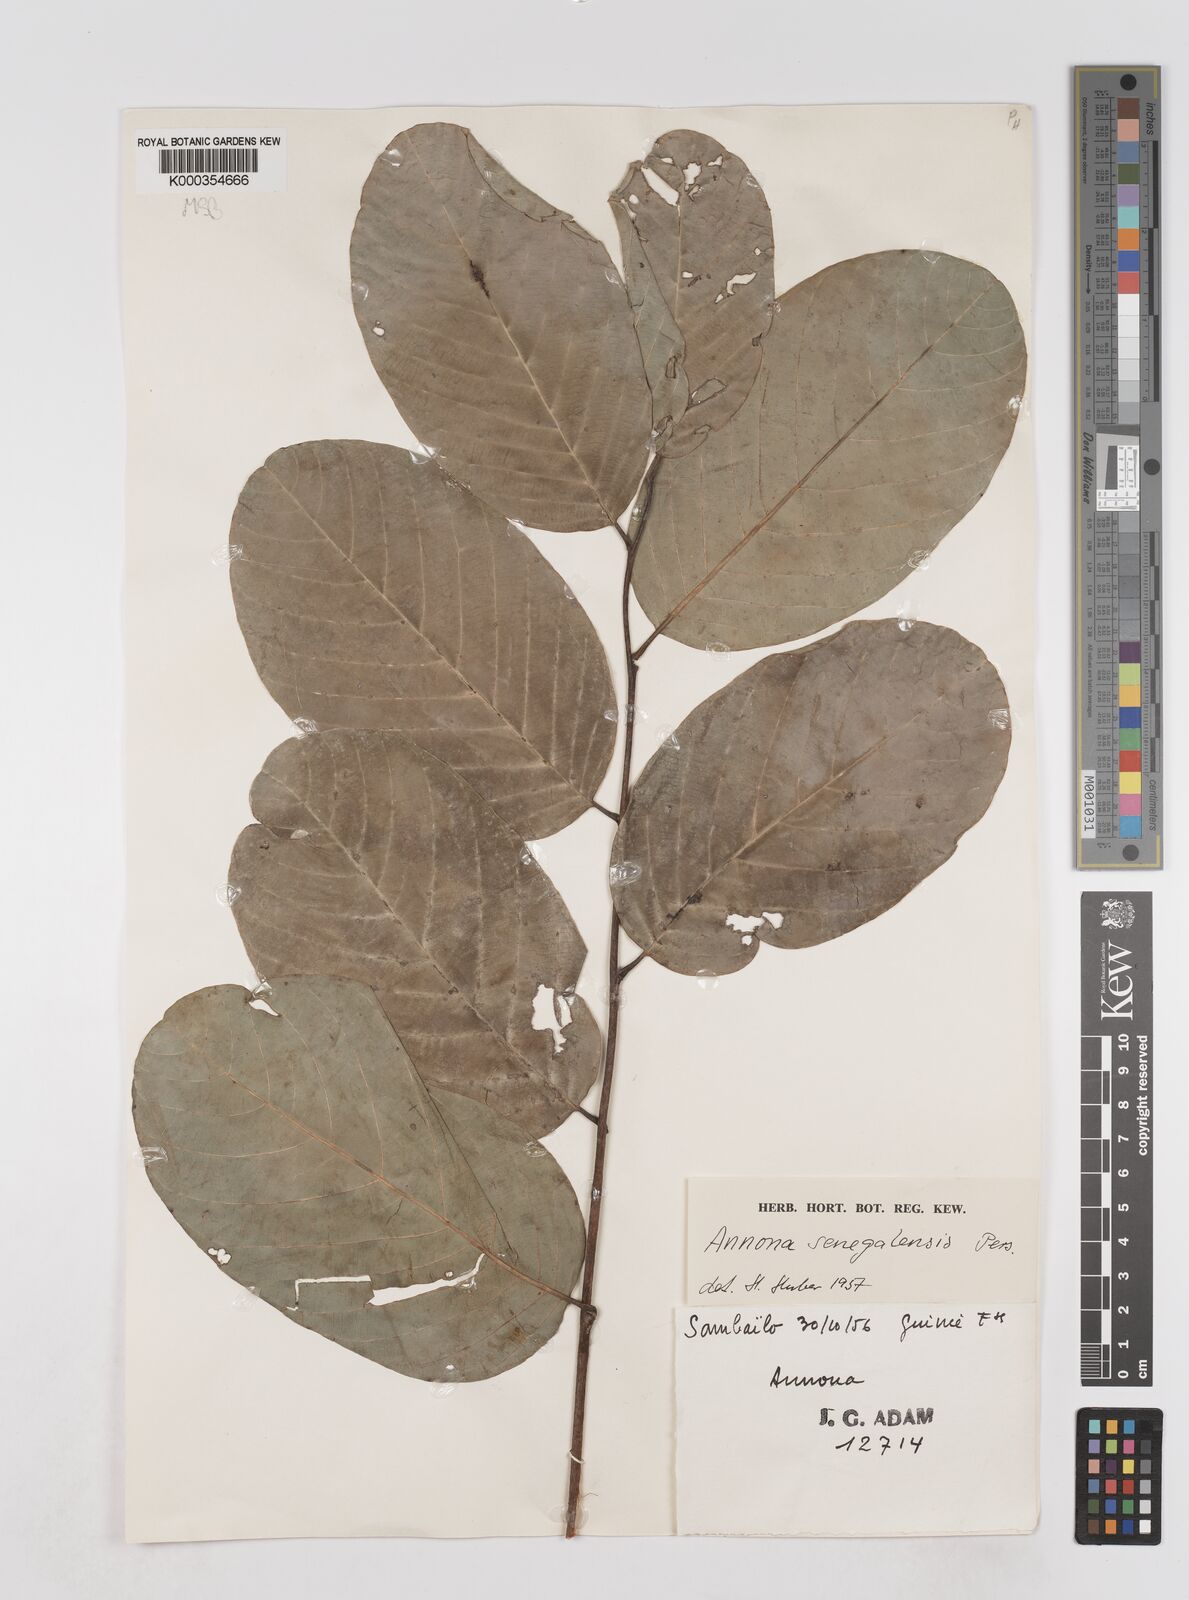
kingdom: Plantae
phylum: Tracheophyta
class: Magnoliopsida
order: Magnoliales
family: Annonaceae
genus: Annona
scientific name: Annona senegalensis
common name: Wild custard-apple
